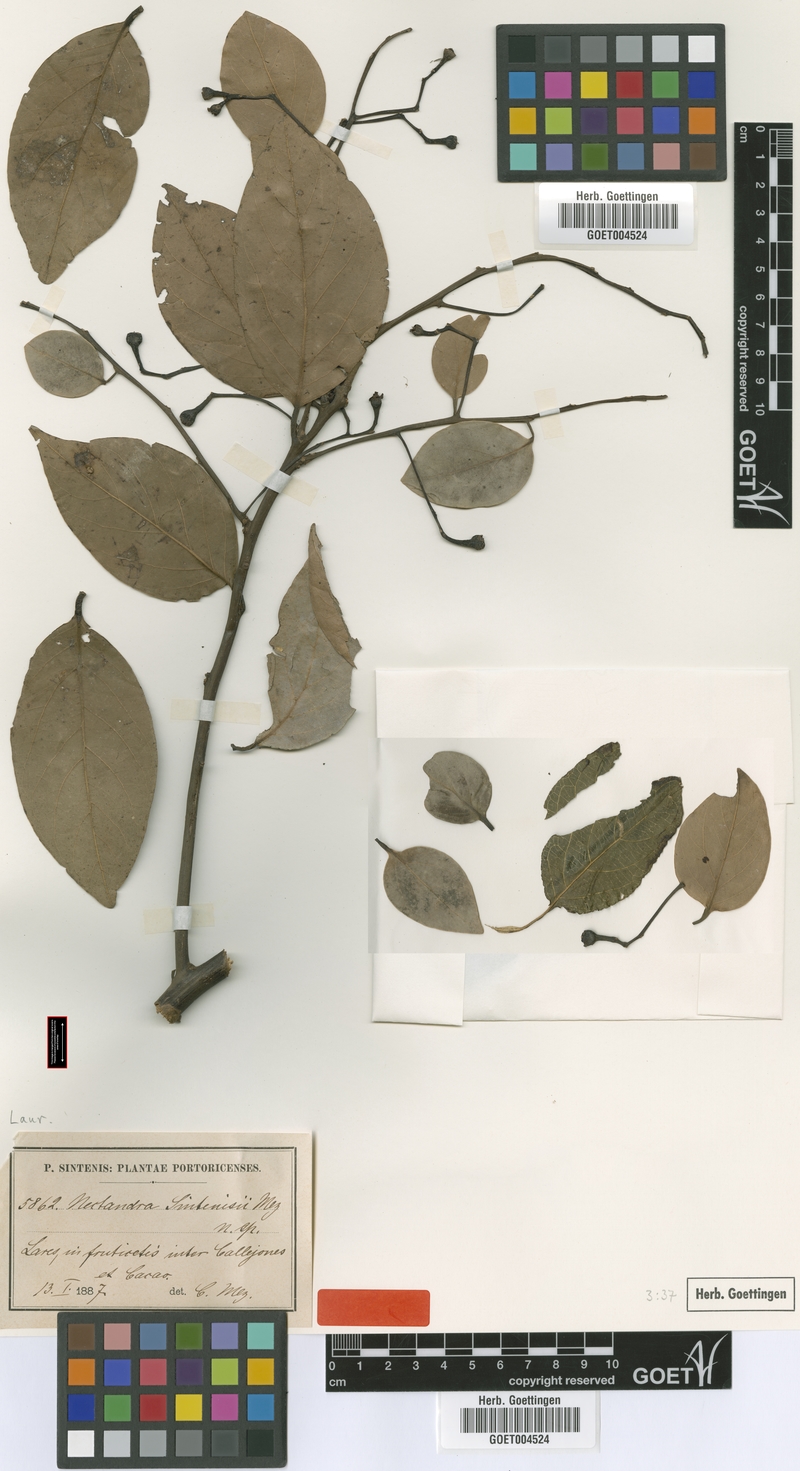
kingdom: Plantae
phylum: Tracheophyta
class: Magnoliopsida
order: Laurales
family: Lauraceae
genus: Nectandra
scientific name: Nectandra turbacensis
